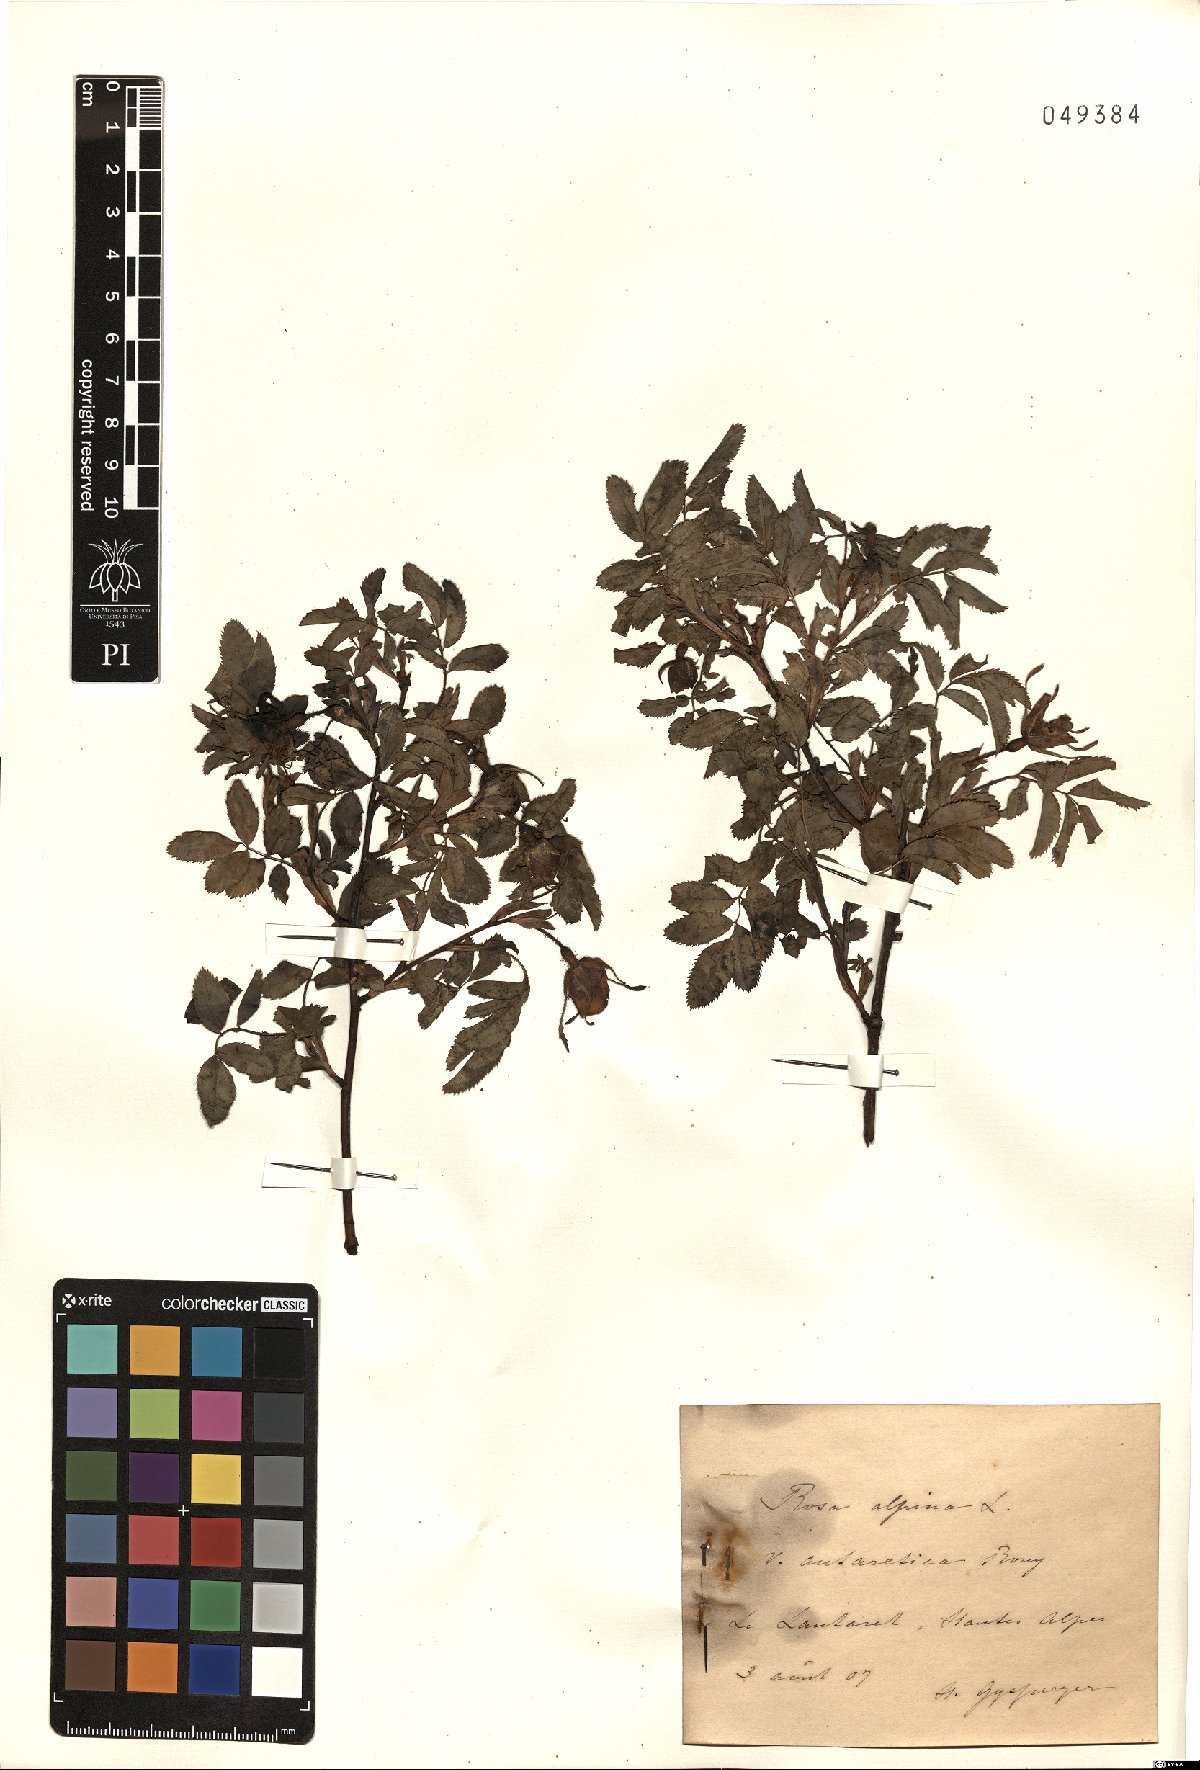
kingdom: Plantae
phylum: Tracheophyta
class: Magnoliopsida
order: Rosales
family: Rosaceae
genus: Rosa
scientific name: Rosa pendulina
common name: Alpine rose
